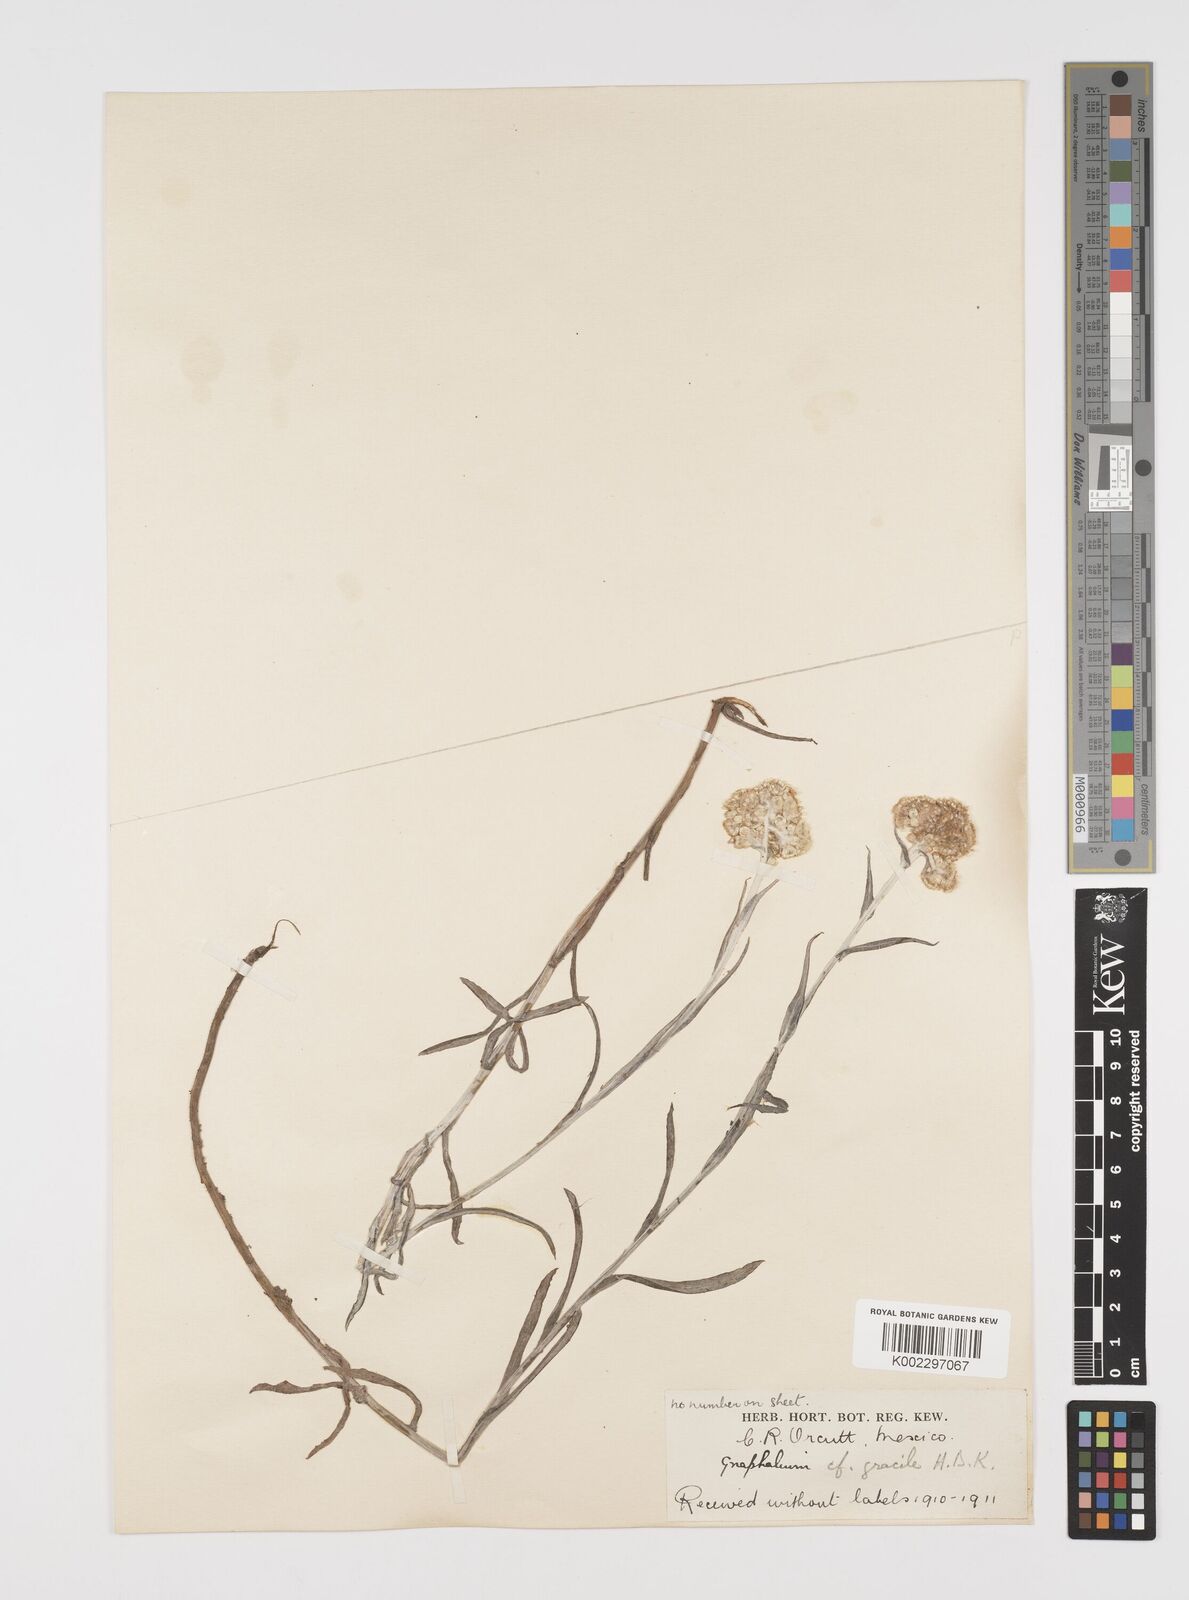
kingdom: Plantae
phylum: Tracheophyta
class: Magnoliopsida
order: Asterales
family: Asteraceae
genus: Pseudognaphalium
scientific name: Pseudognaphalium
